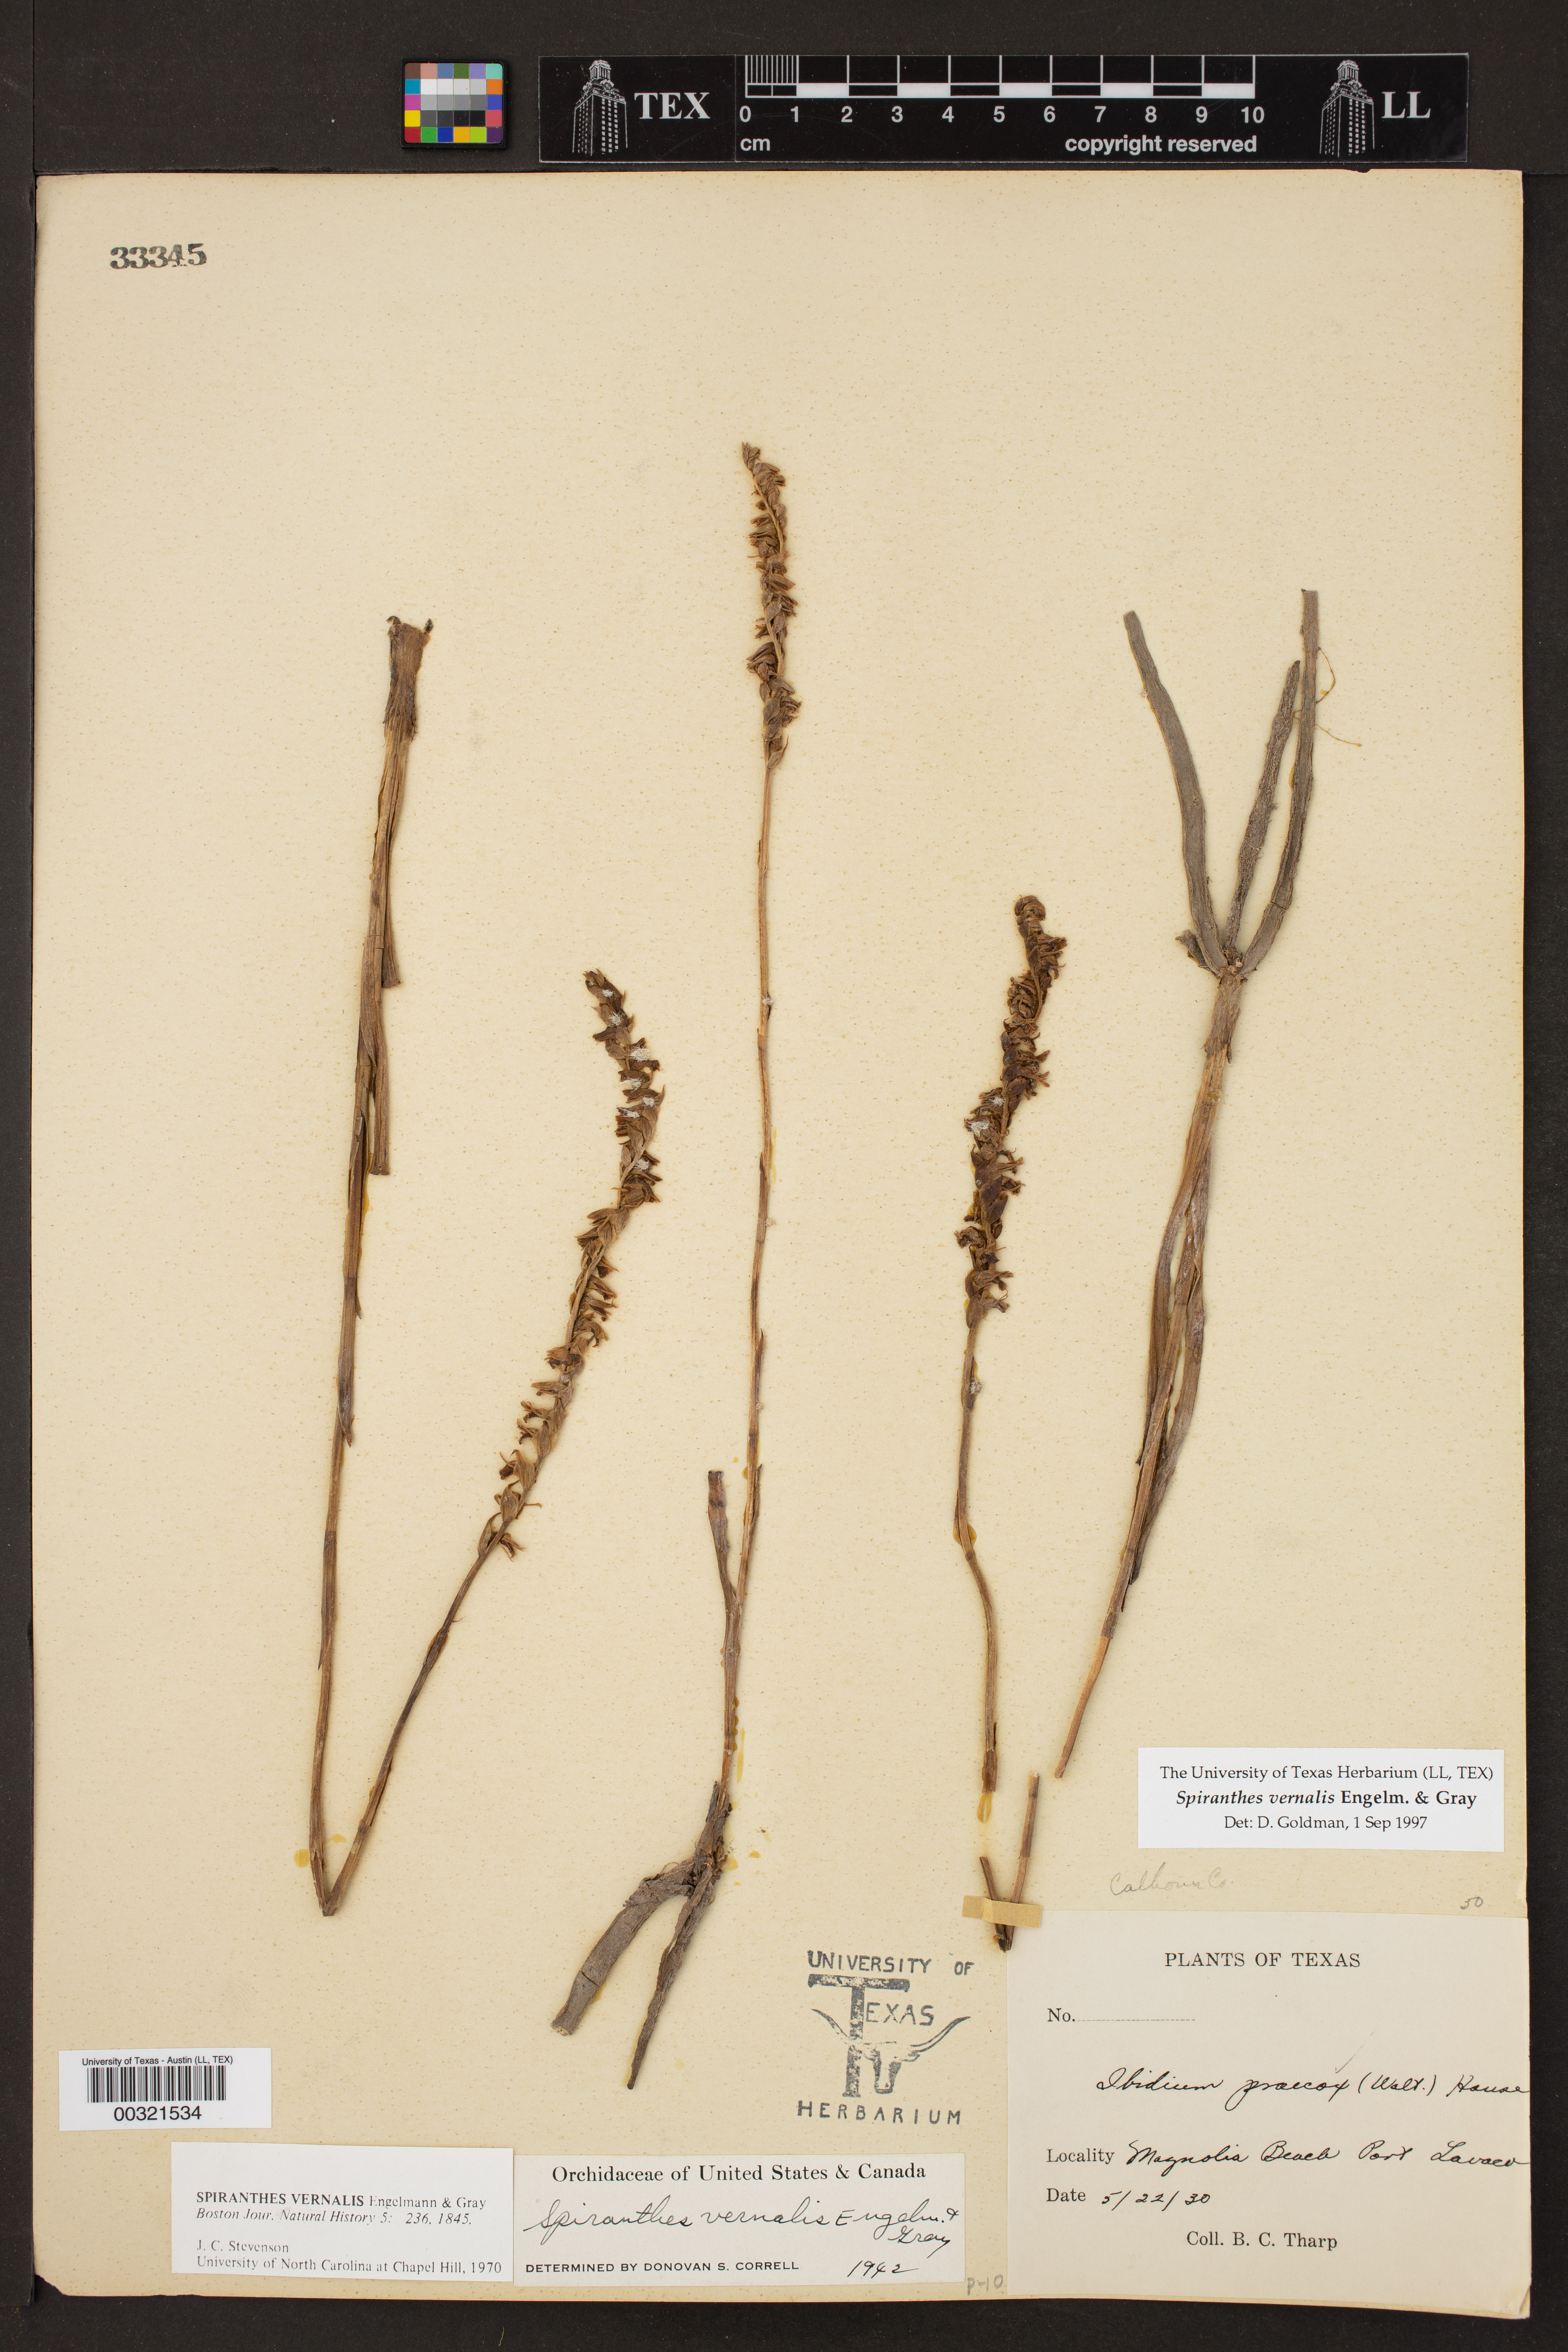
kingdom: Plantae
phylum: Tracheophyta
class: Liliopsida
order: Asparagales
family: Orchidaceae
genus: Spiranthes
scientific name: Spiranthes vernalis
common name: Spring ladies'-tresses
